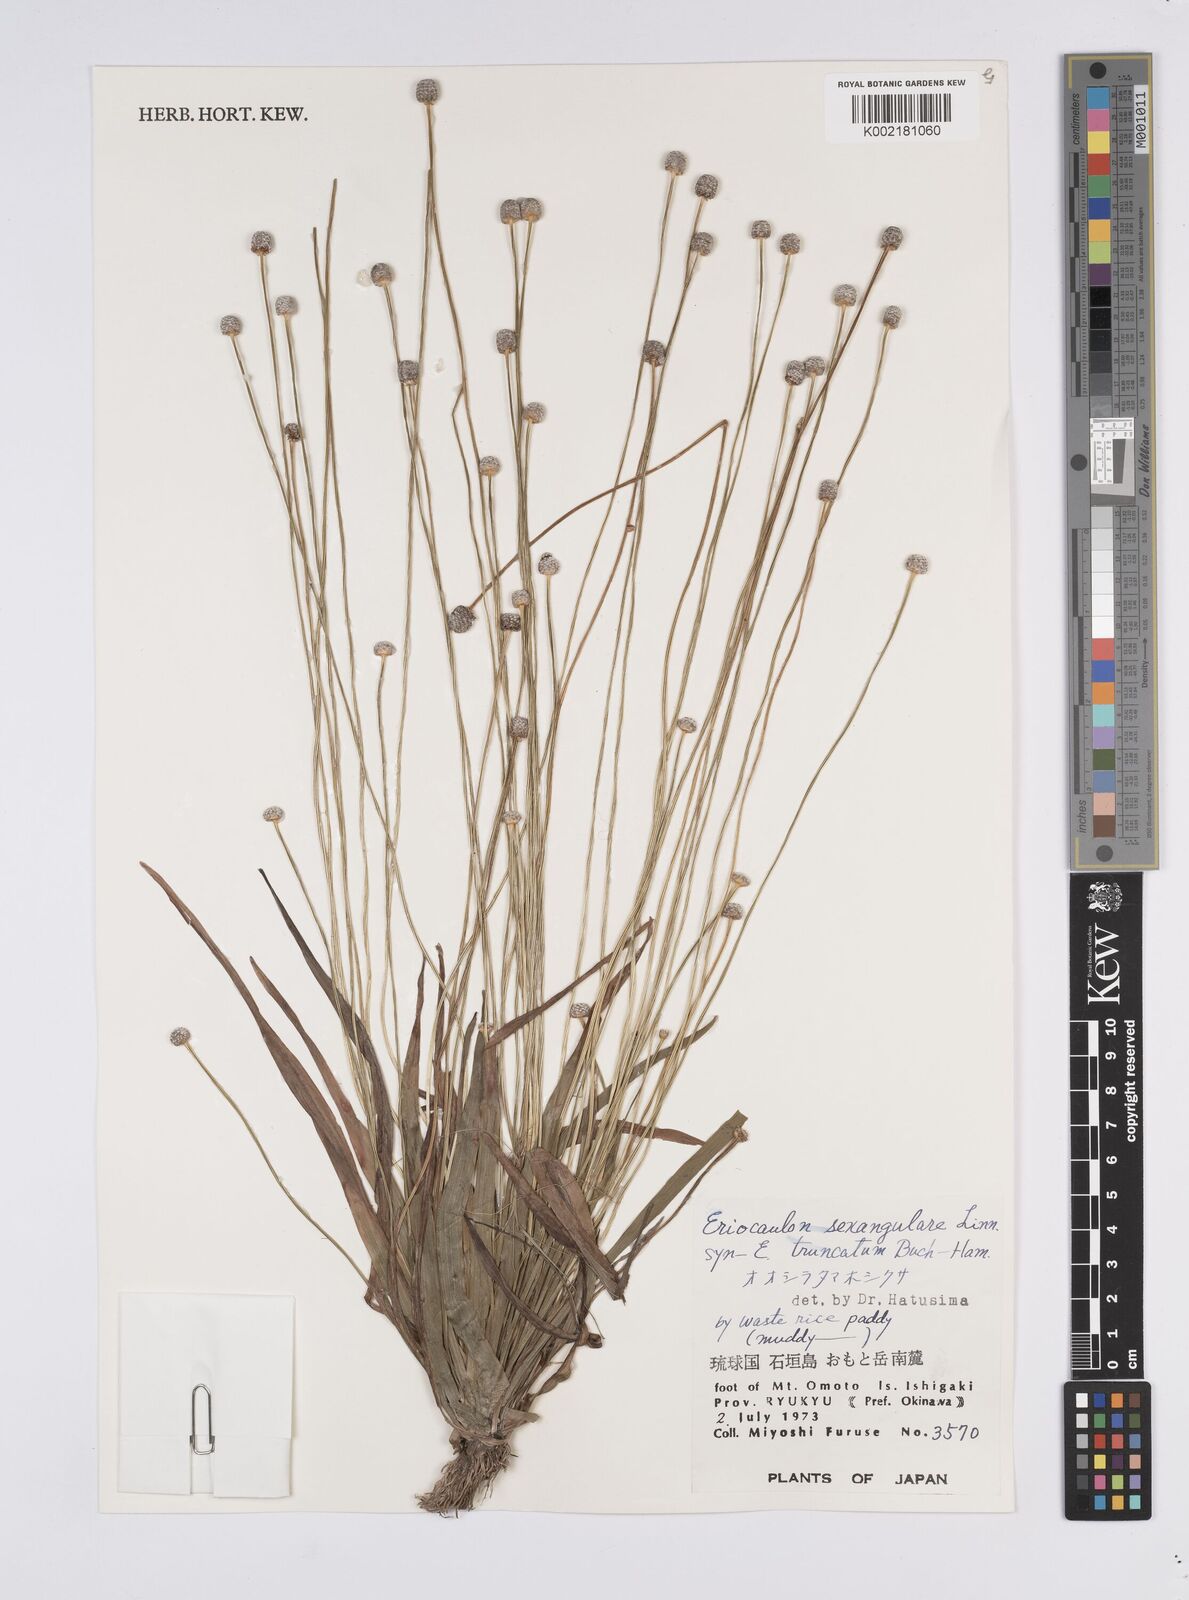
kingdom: Plantae
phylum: Tracheophyta
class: Liliopsida
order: Poales
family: Eriocaulaceae
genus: Eriocaulon
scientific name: Eriocaulon sexangulare
